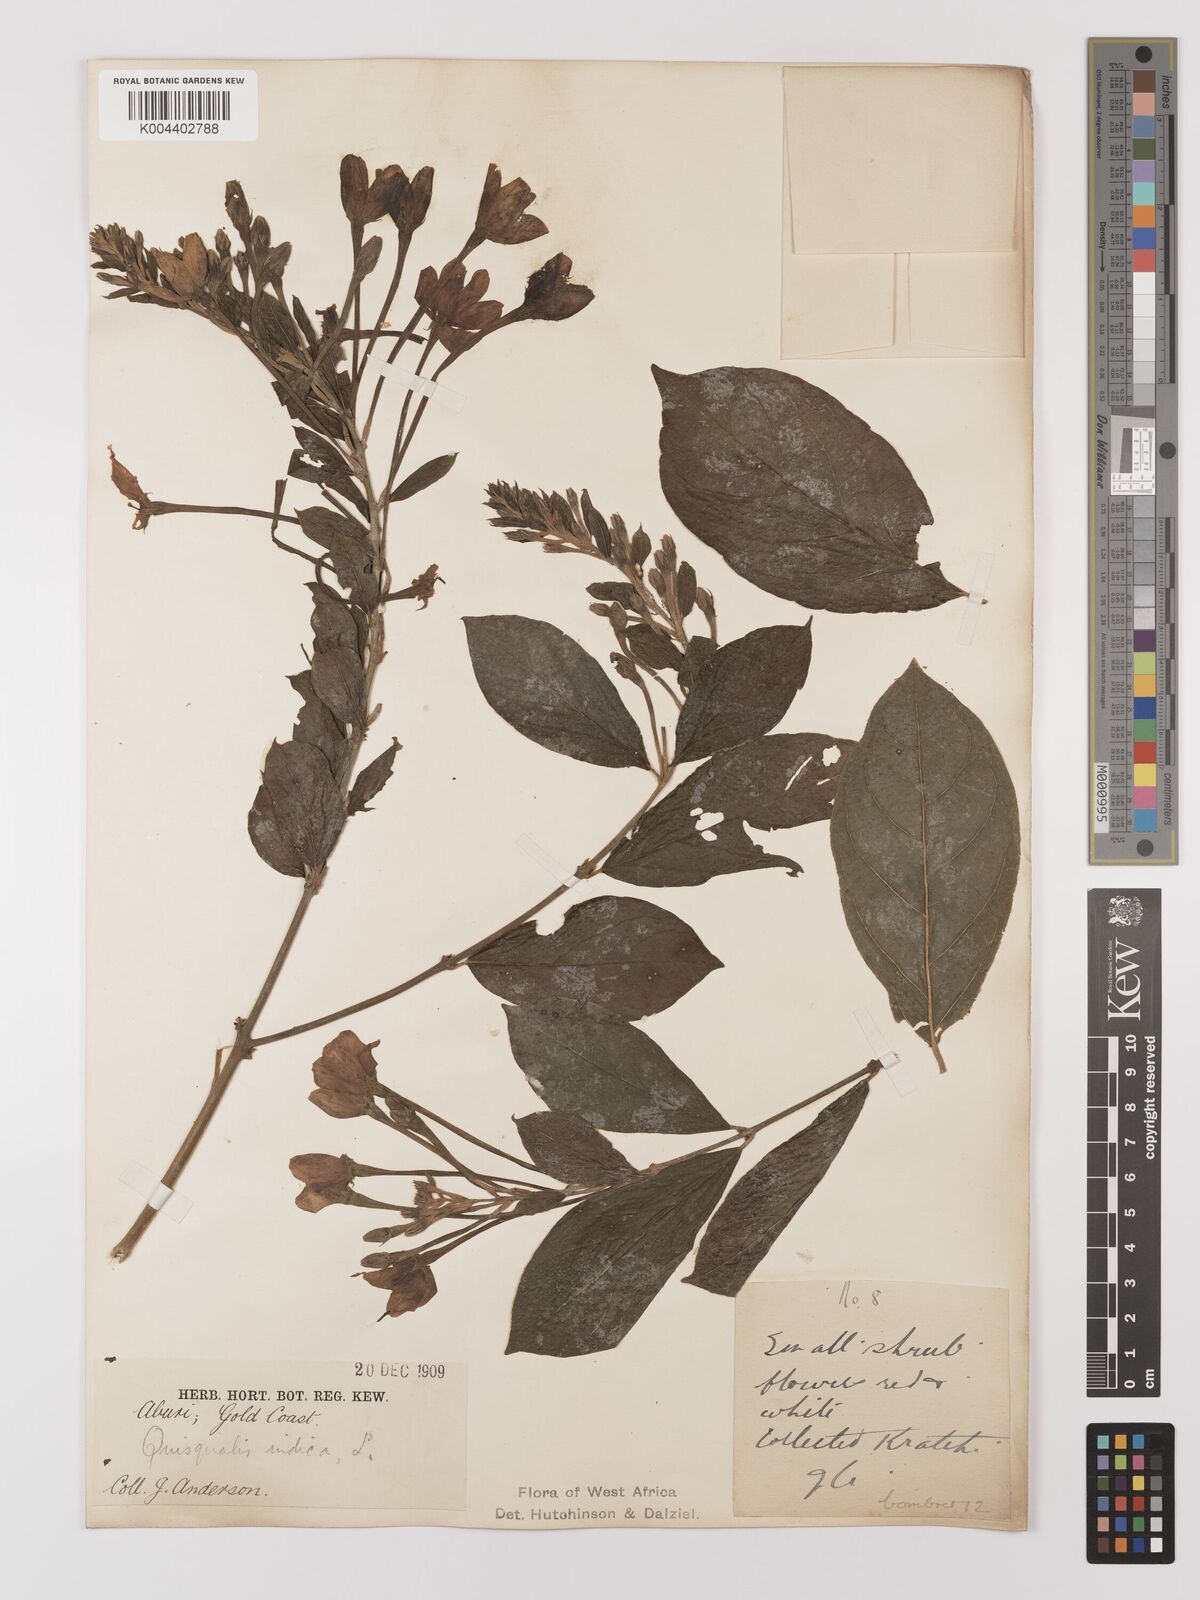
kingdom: Plantae
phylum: Tracheophyta
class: Magnoliopsida
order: Myrtales
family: Combretaceae
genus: Combretum
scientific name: Combretum
